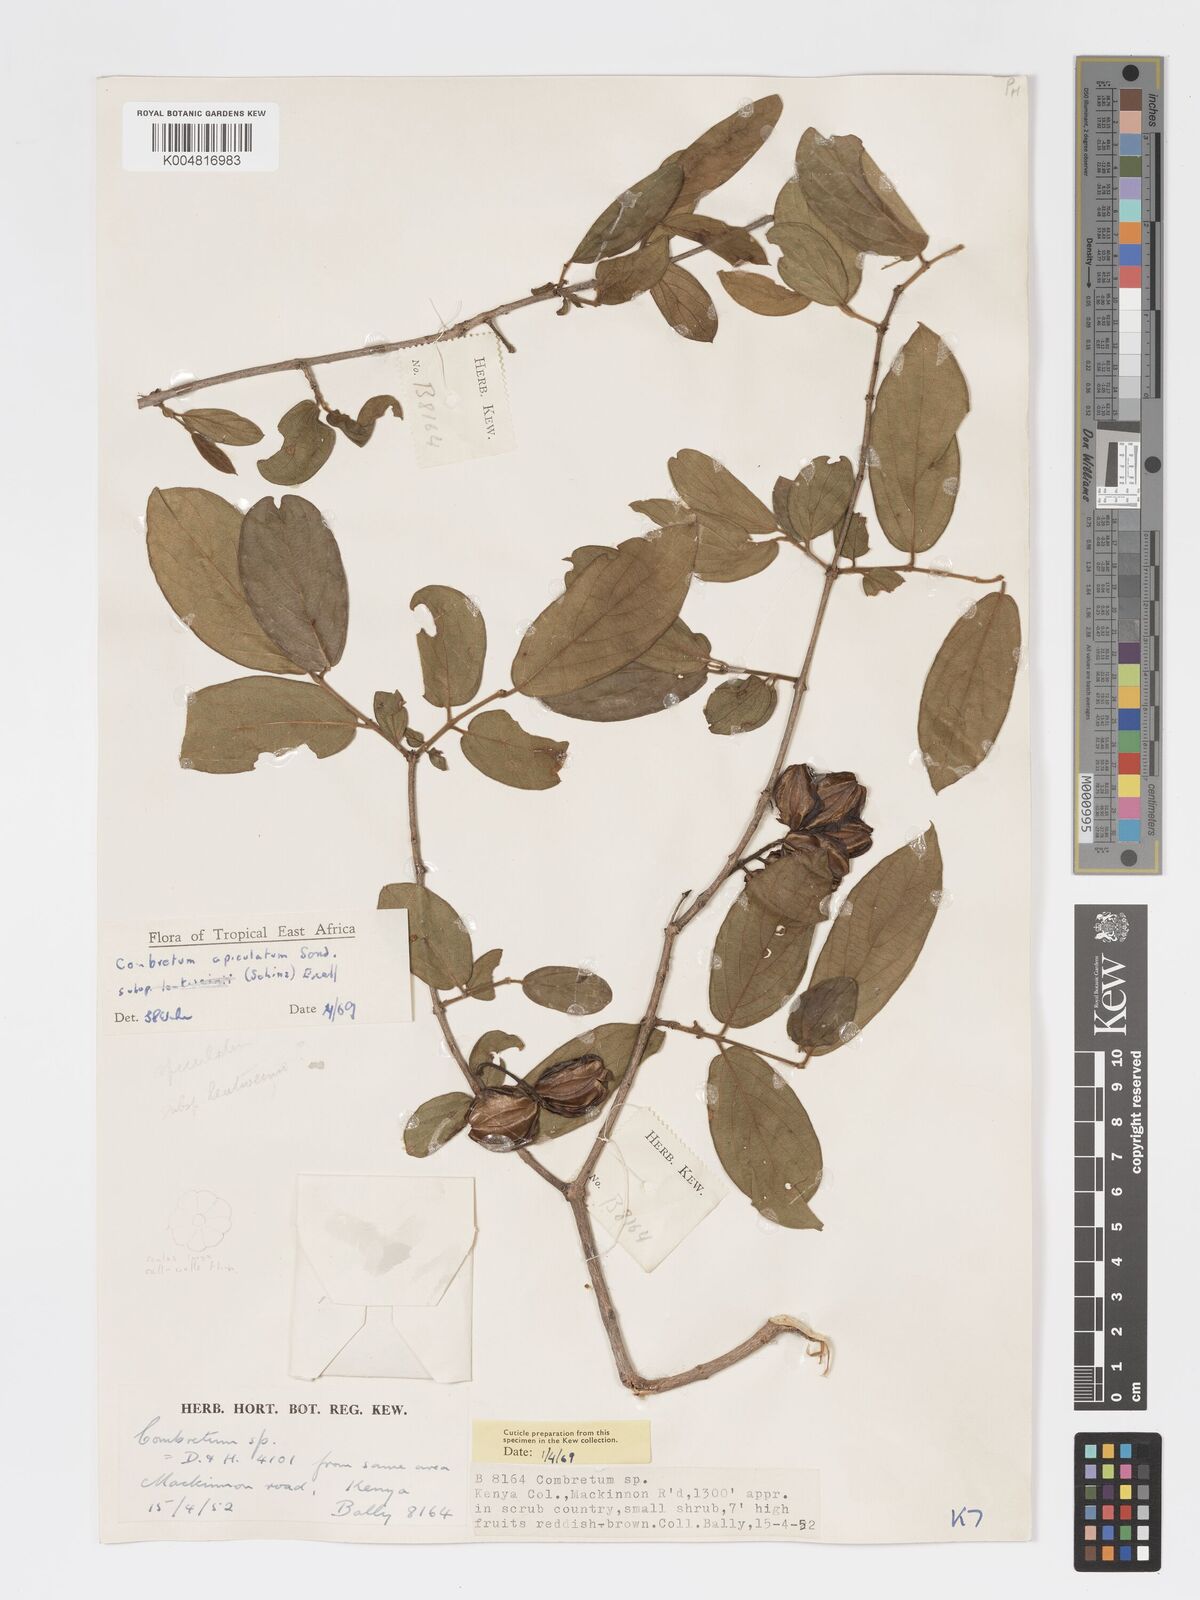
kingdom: Plantae
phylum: Tracheophyta
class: Magnoliopsida
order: Myrtales
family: Combretaceae
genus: Combretum
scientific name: Combretum apiculatum
